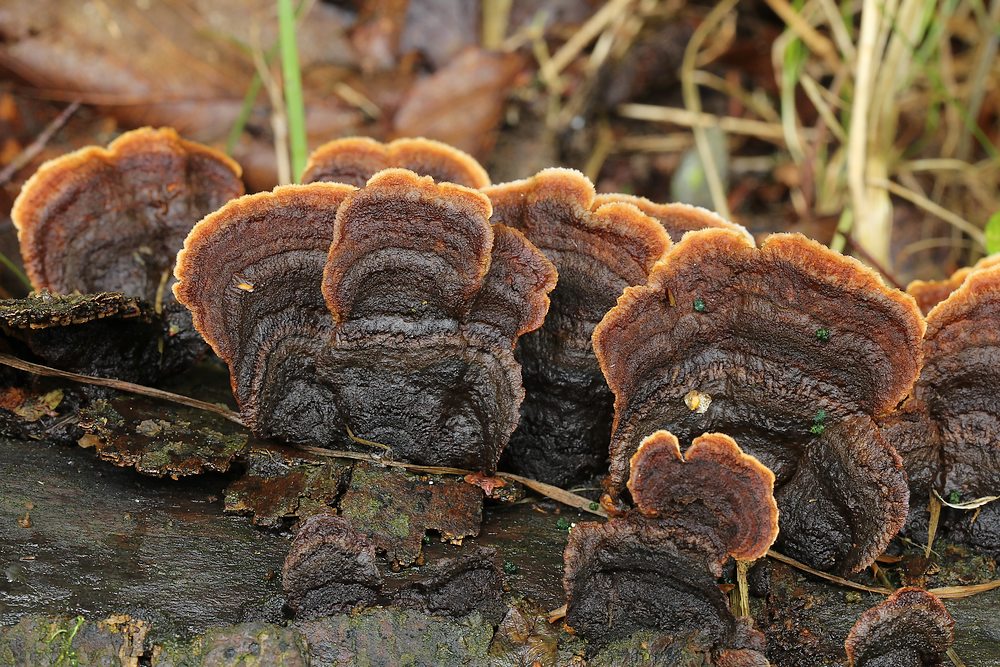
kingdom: Fungi
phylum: Basidiomycota
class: Agaricomycetes
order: Russulales
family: Hericiaceae
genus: Laxitextum
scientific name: Laxitextum bicolor
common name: tvefarvet filtskind
